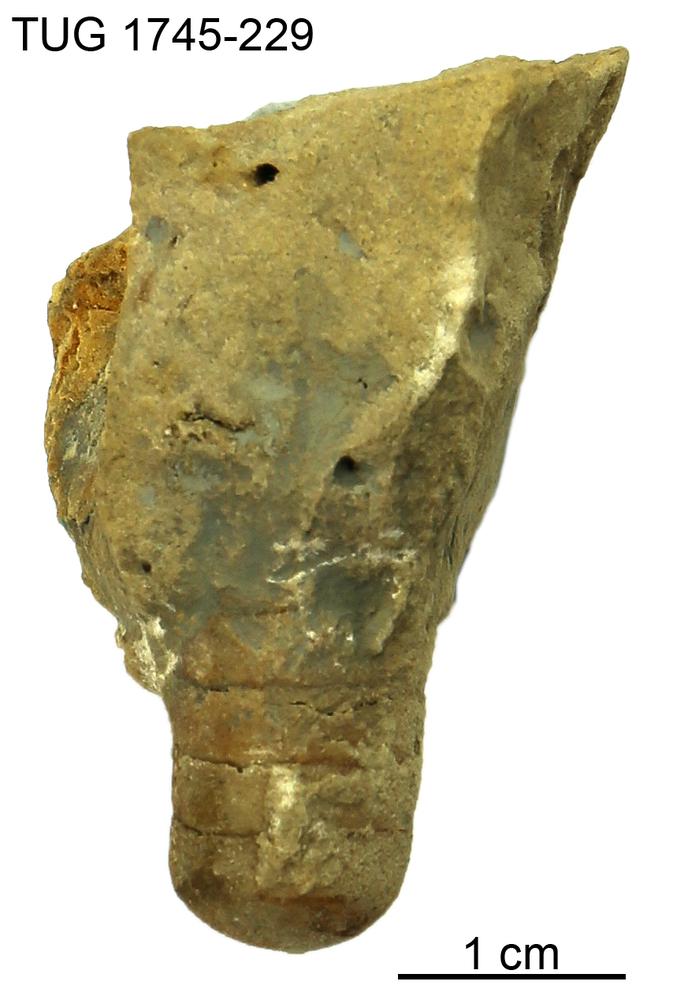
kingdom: Animalia
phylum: Mollusca
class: Cephalopoda
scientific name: Cephalopoda
